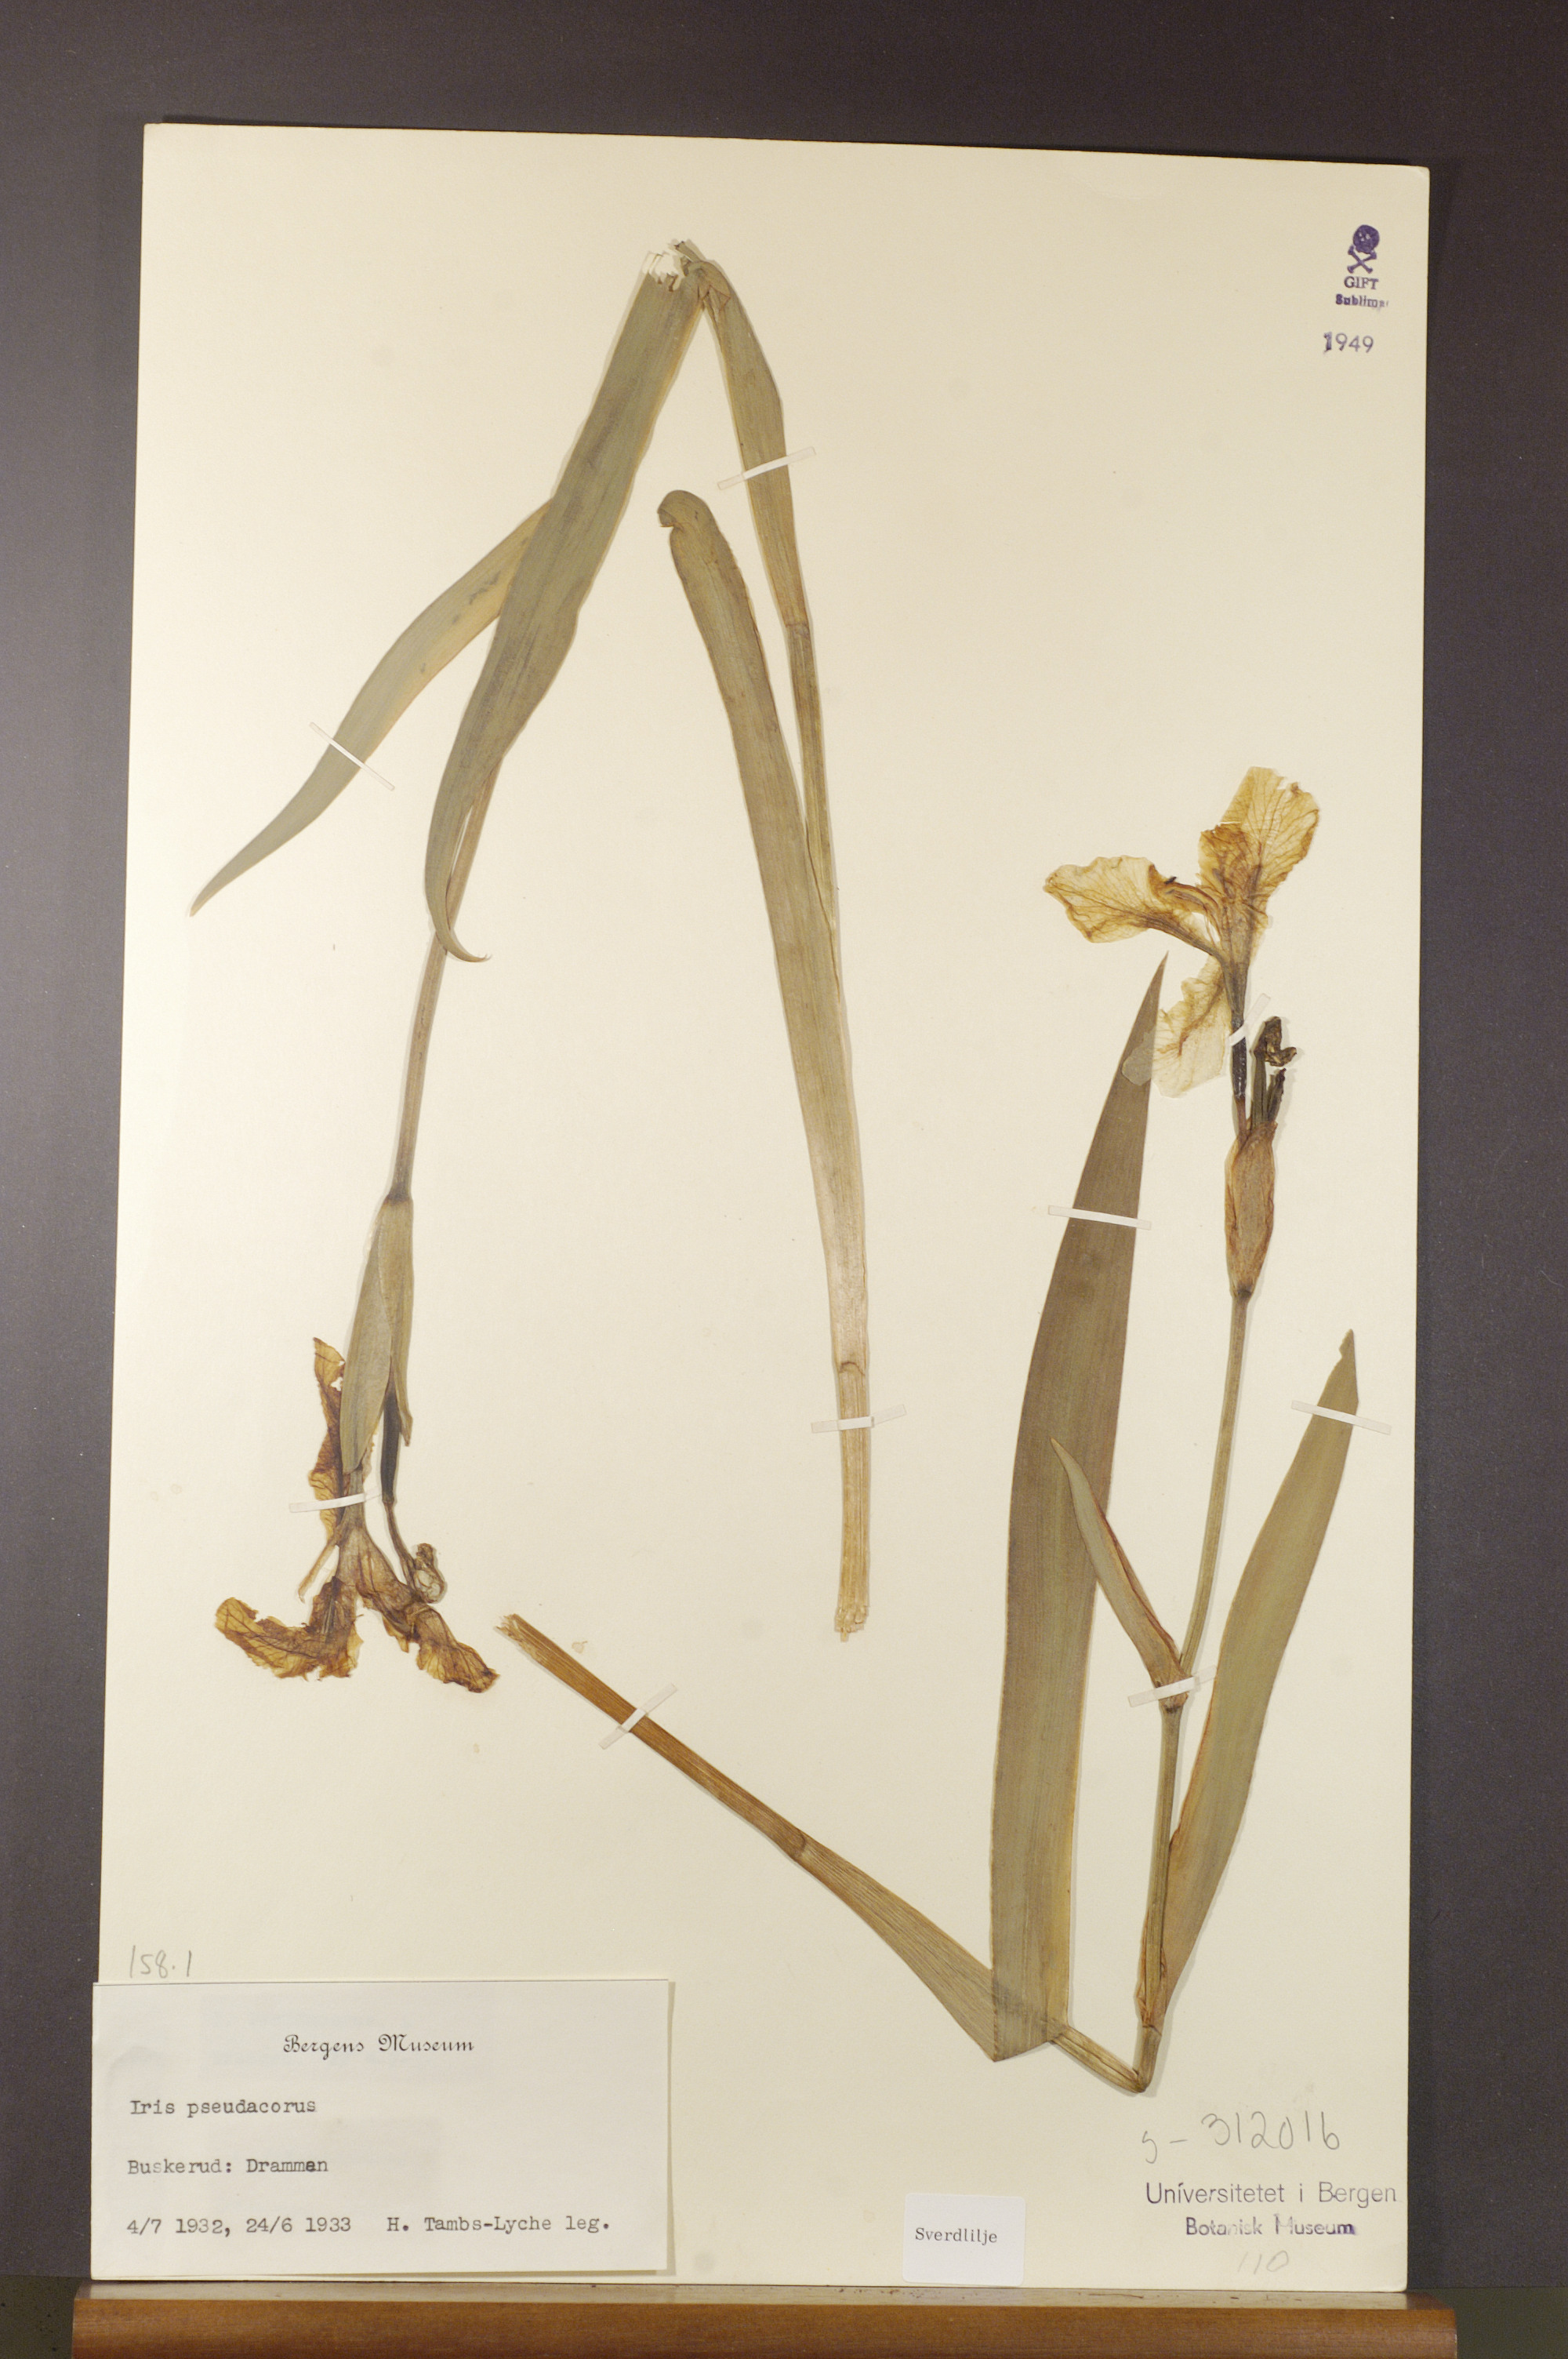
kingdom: Plantae
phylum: Tracheophyta
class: Liliopsida
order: Asparagales
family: Iridaceae
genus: Iris
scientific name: Iris pseudacorus
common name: Yellow flag
